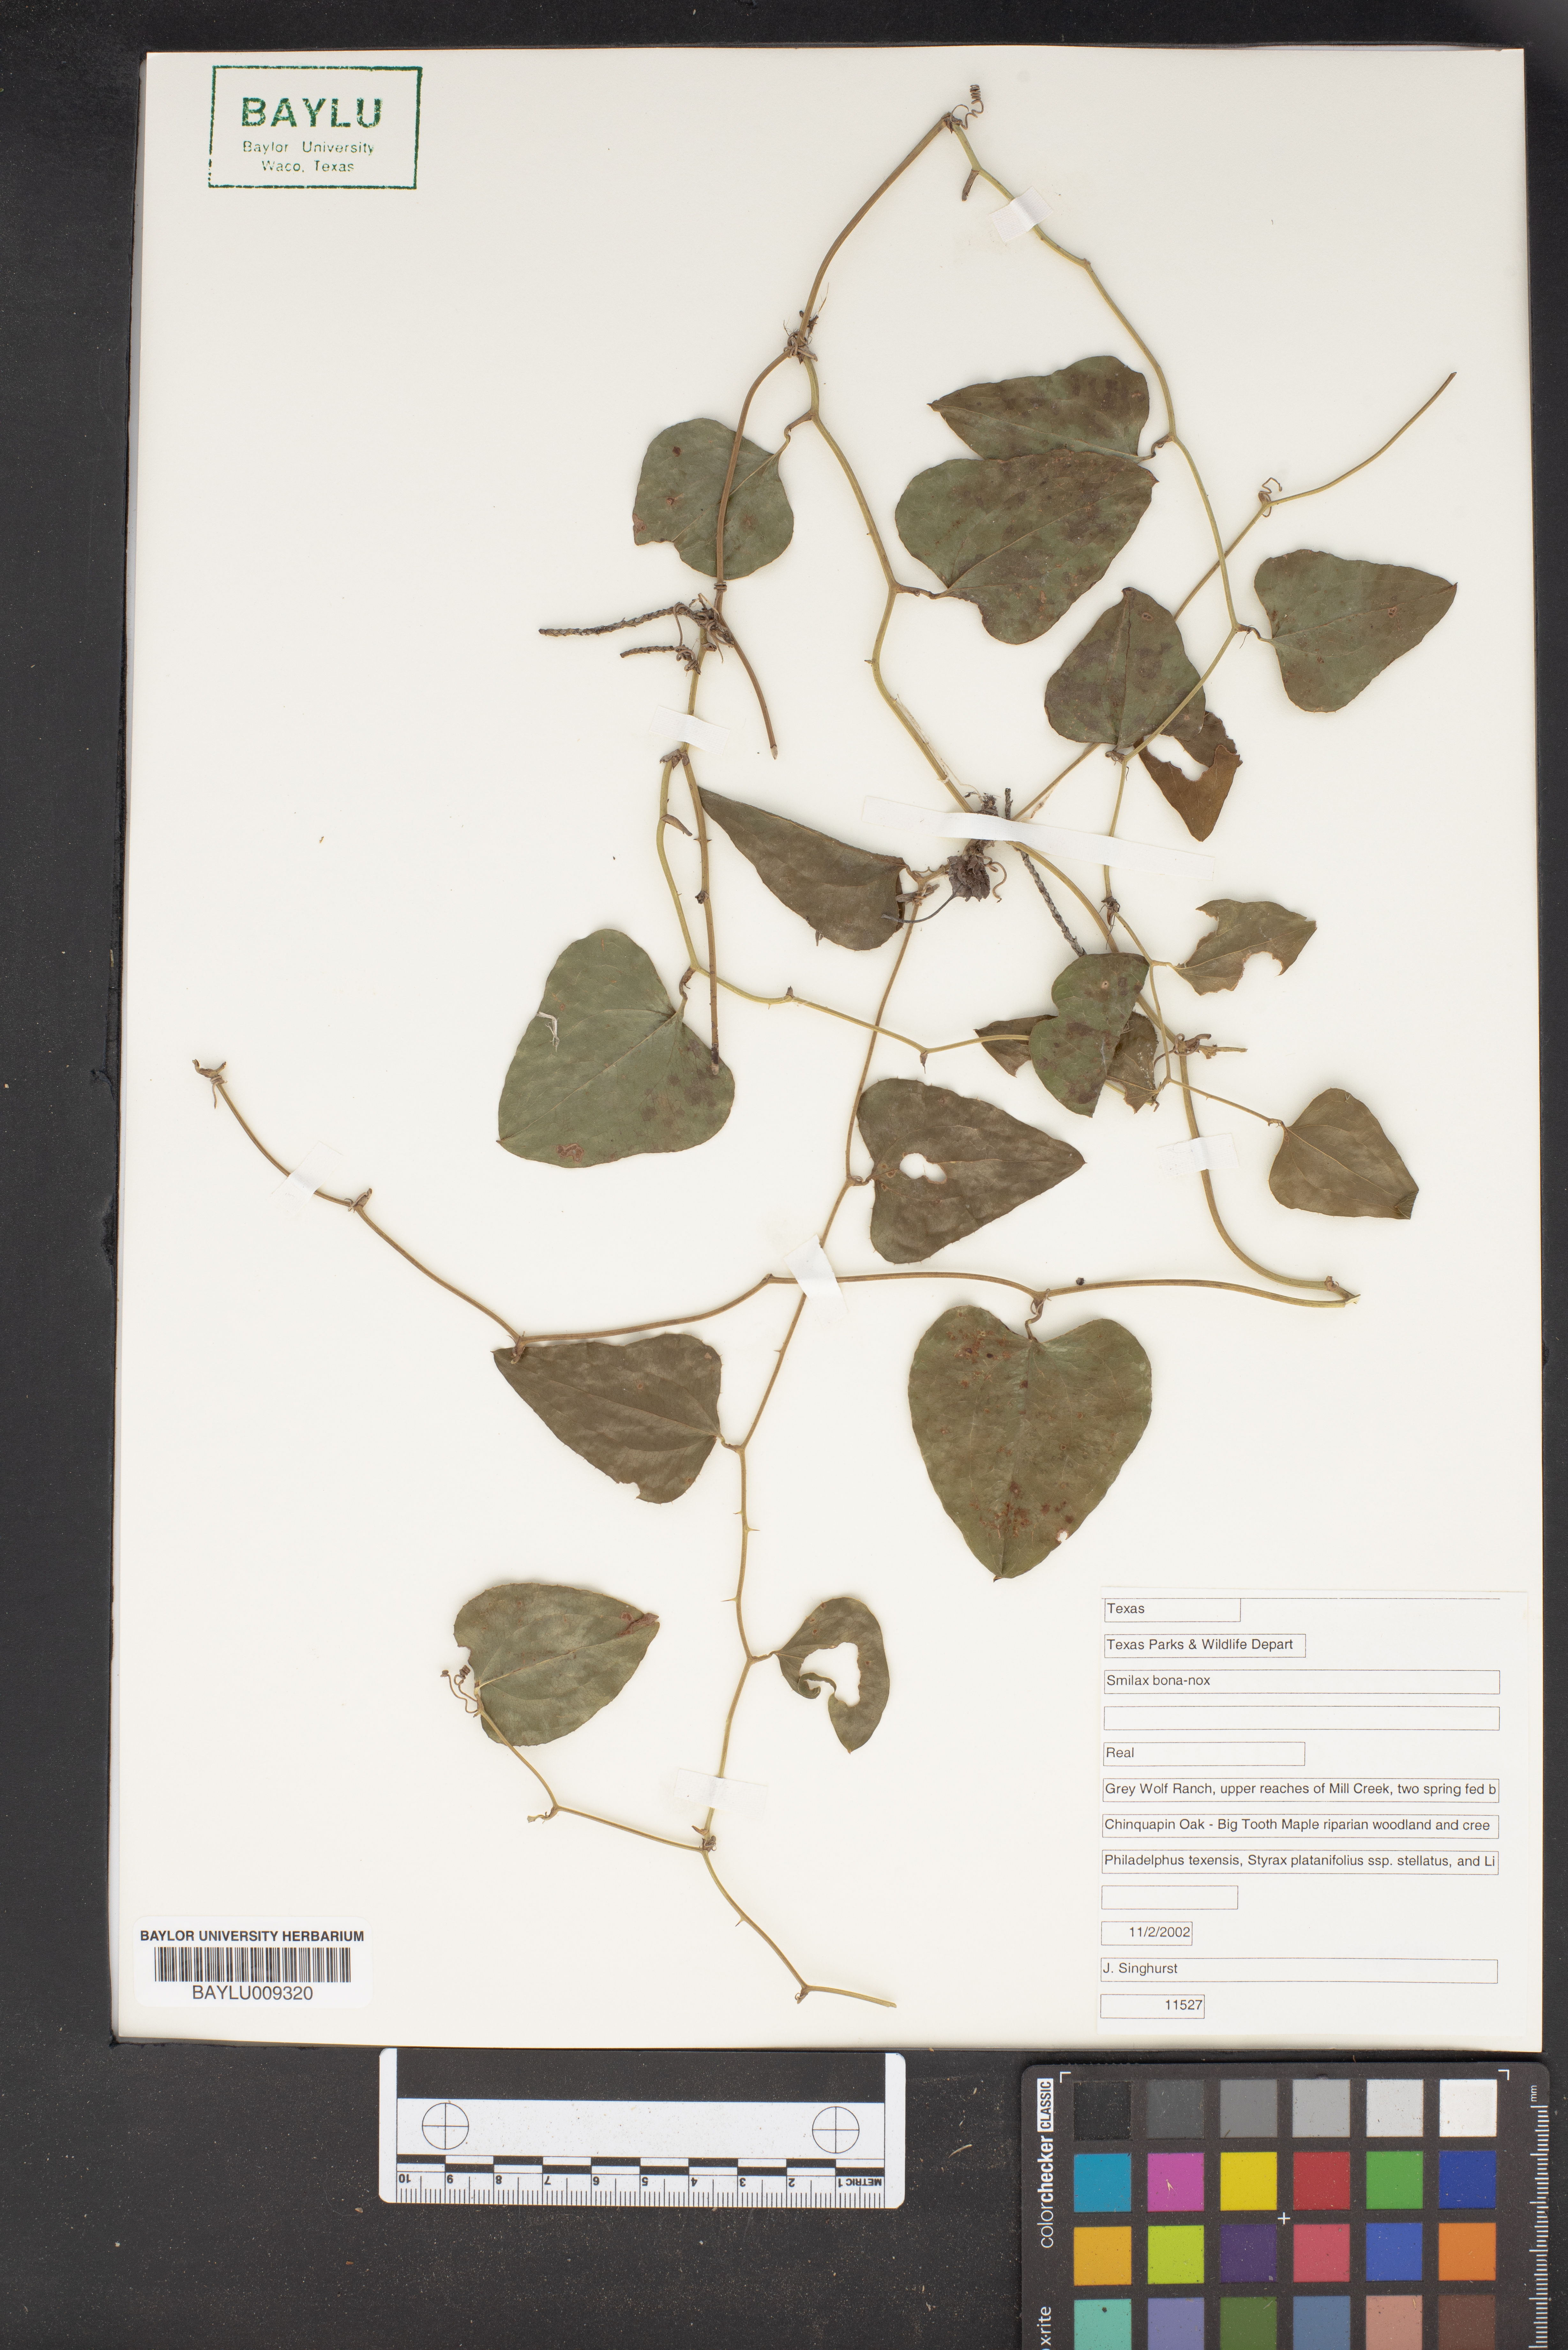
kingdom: Plantae
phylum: Tracheophyta
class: Liliopsida
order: Liliales
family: Smilacaceae
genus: Smilax
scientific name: Smilax bona-nox
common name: Catbrier
